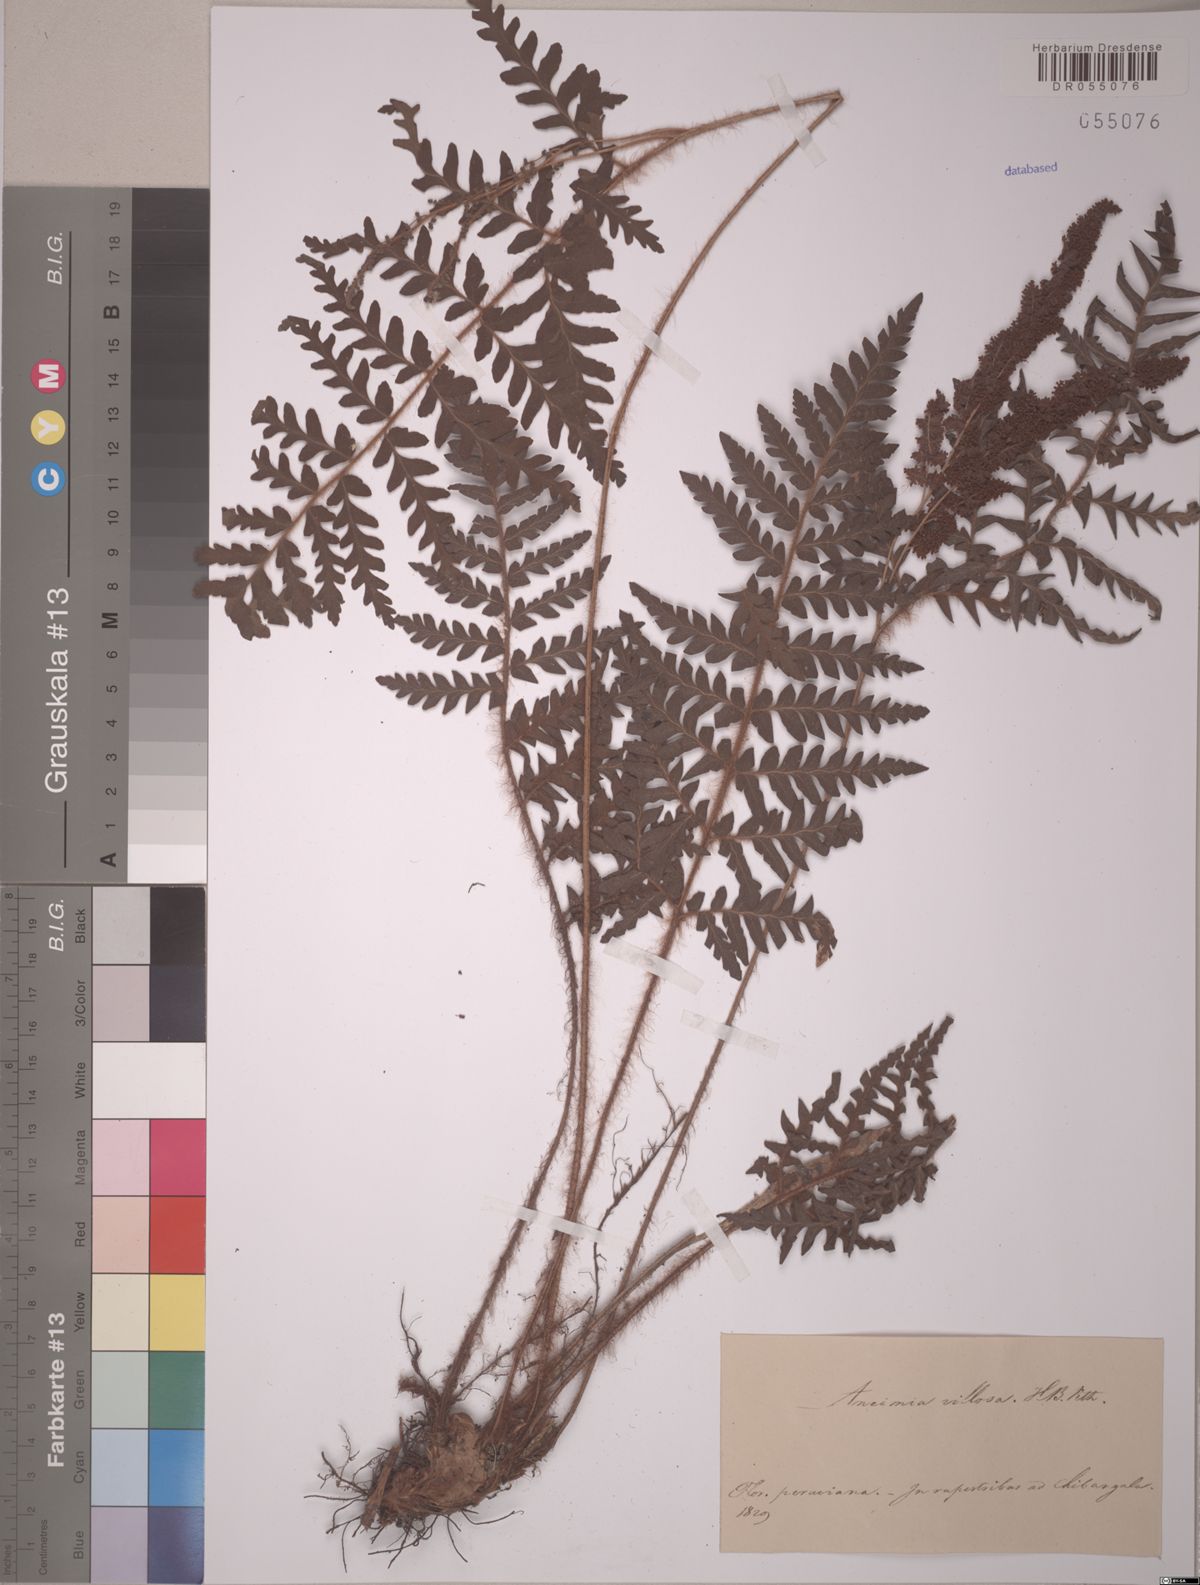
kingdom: Plantae
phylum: Tracheophyta
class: Polypodiopsida
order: Schizaeales
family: Anemiaceae
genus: Anemia
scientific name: Anemia villosa
